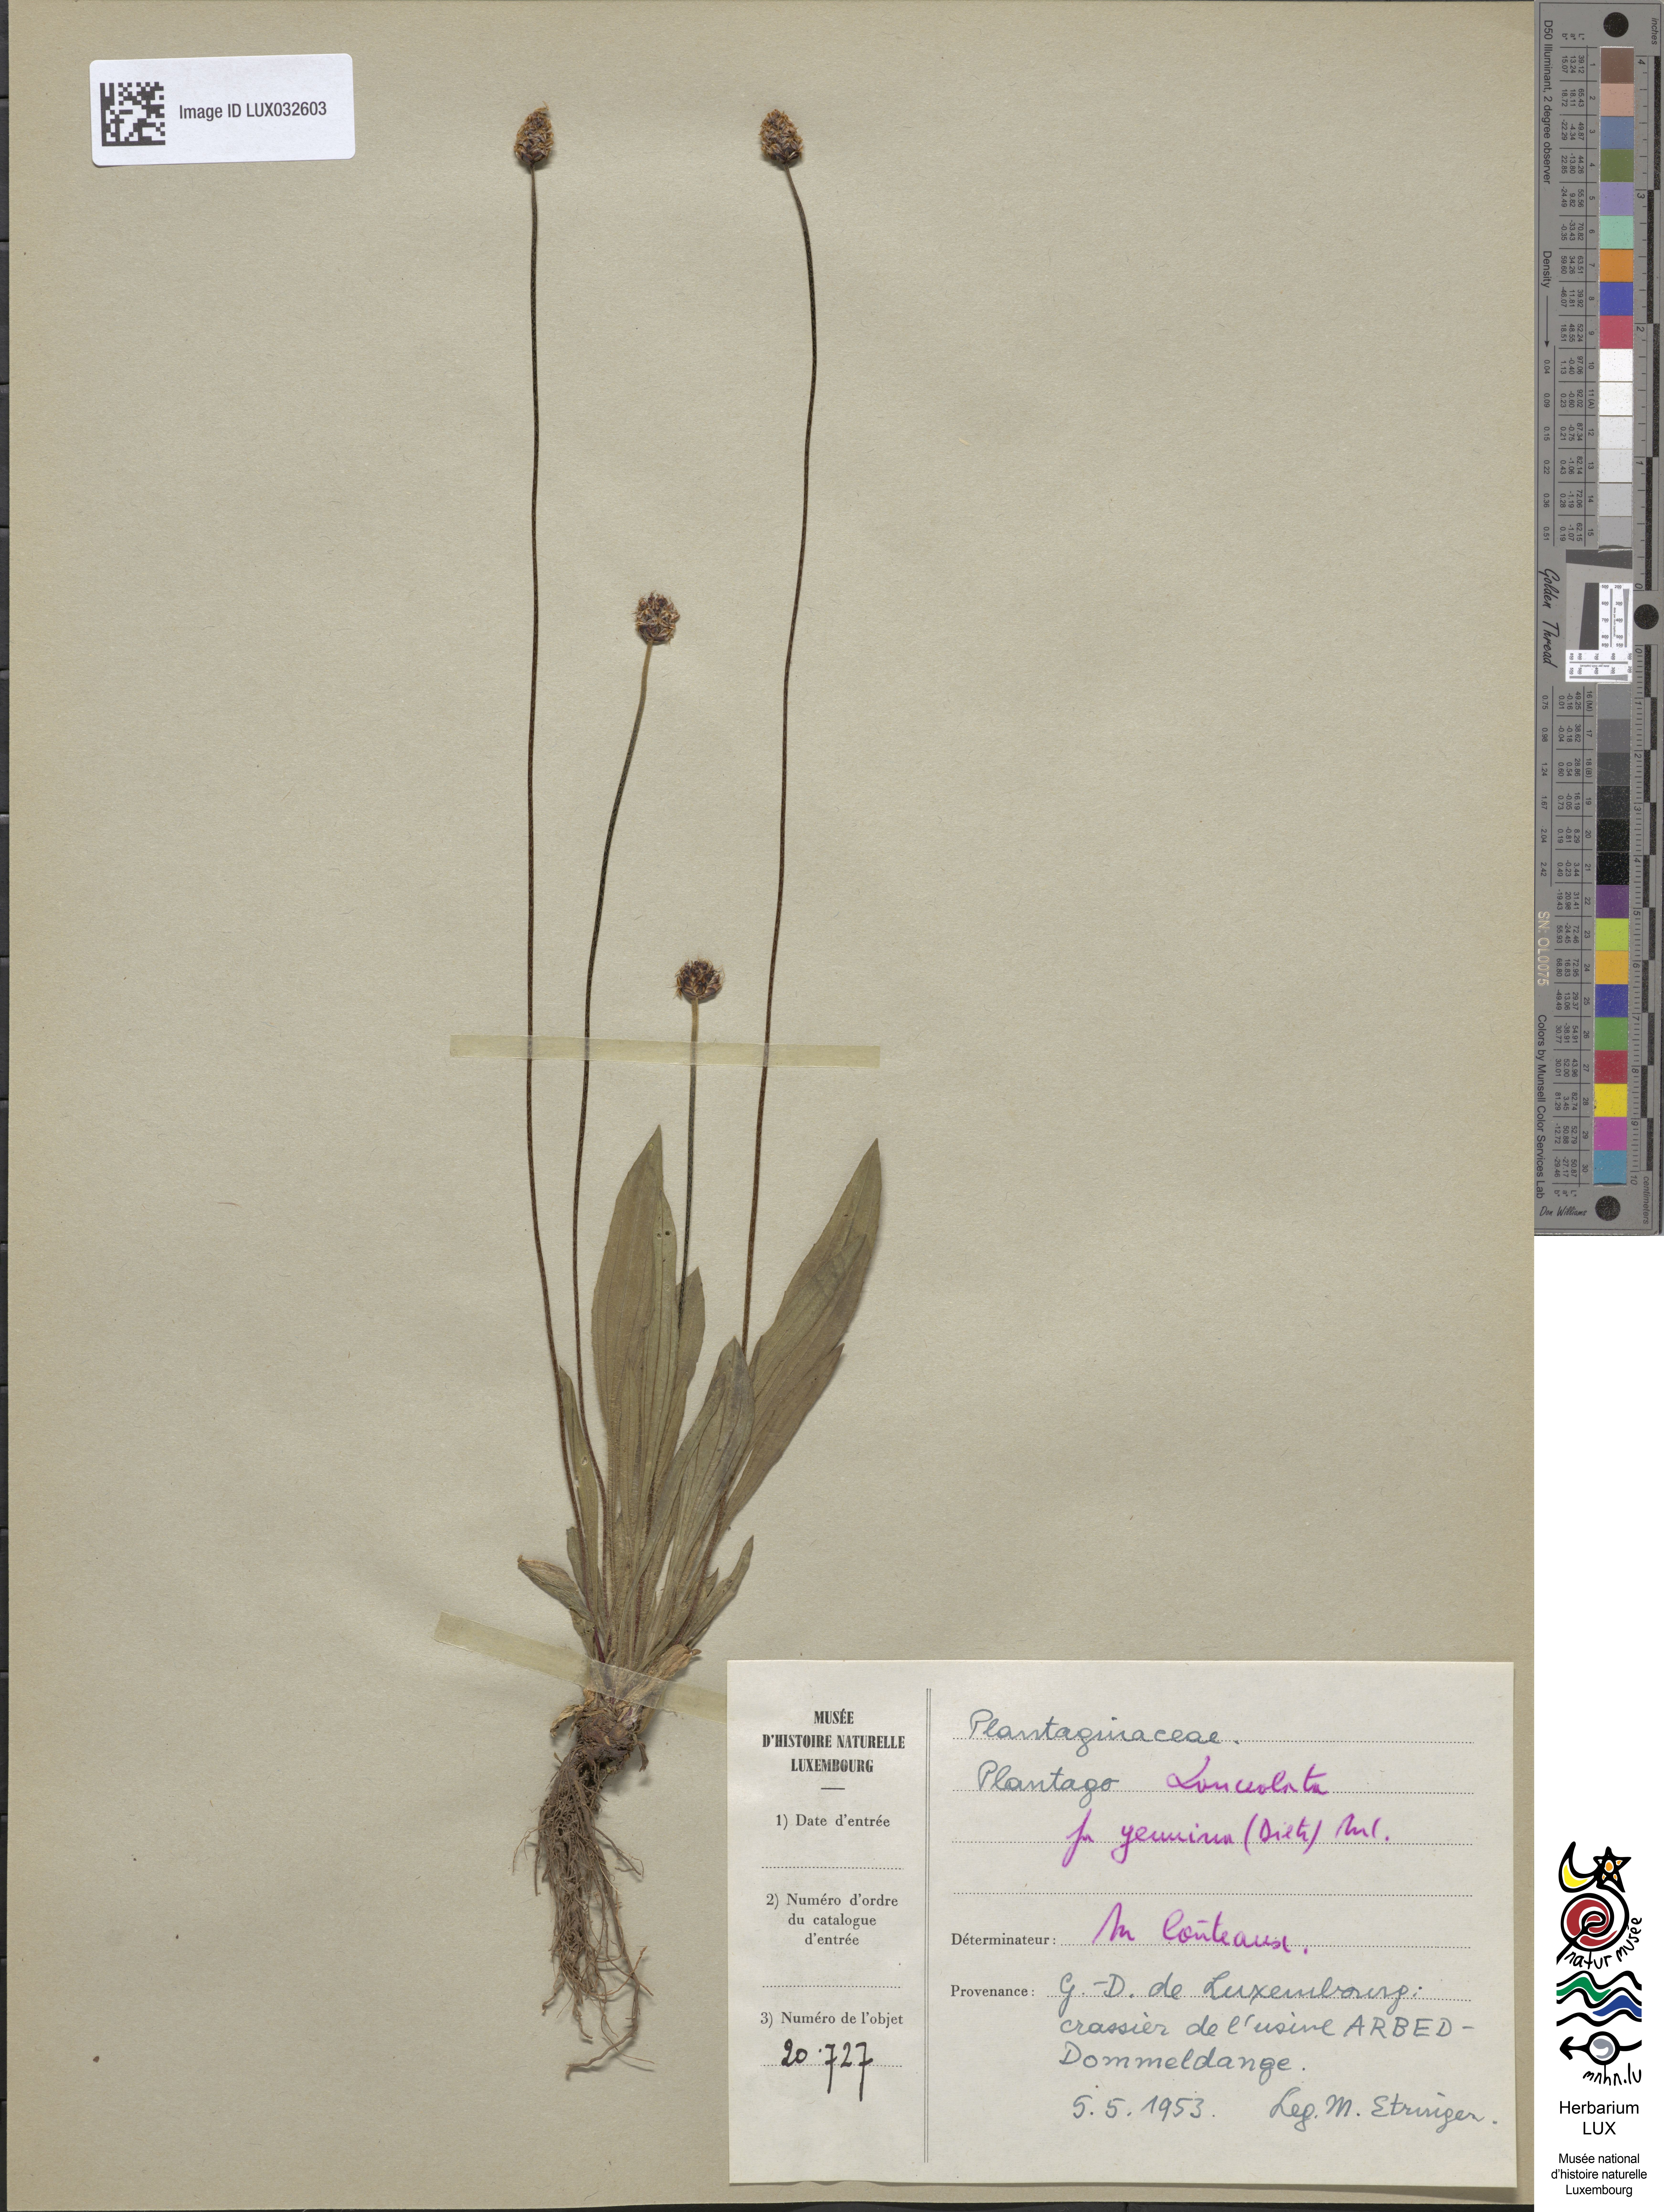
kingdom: Plantae
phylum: Tracheophyta
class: Magnoliopsida
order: Lamiales
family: Plantaginaceae
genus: Plantago
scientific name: Plantago lanceolata
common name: Ribwort plantain
